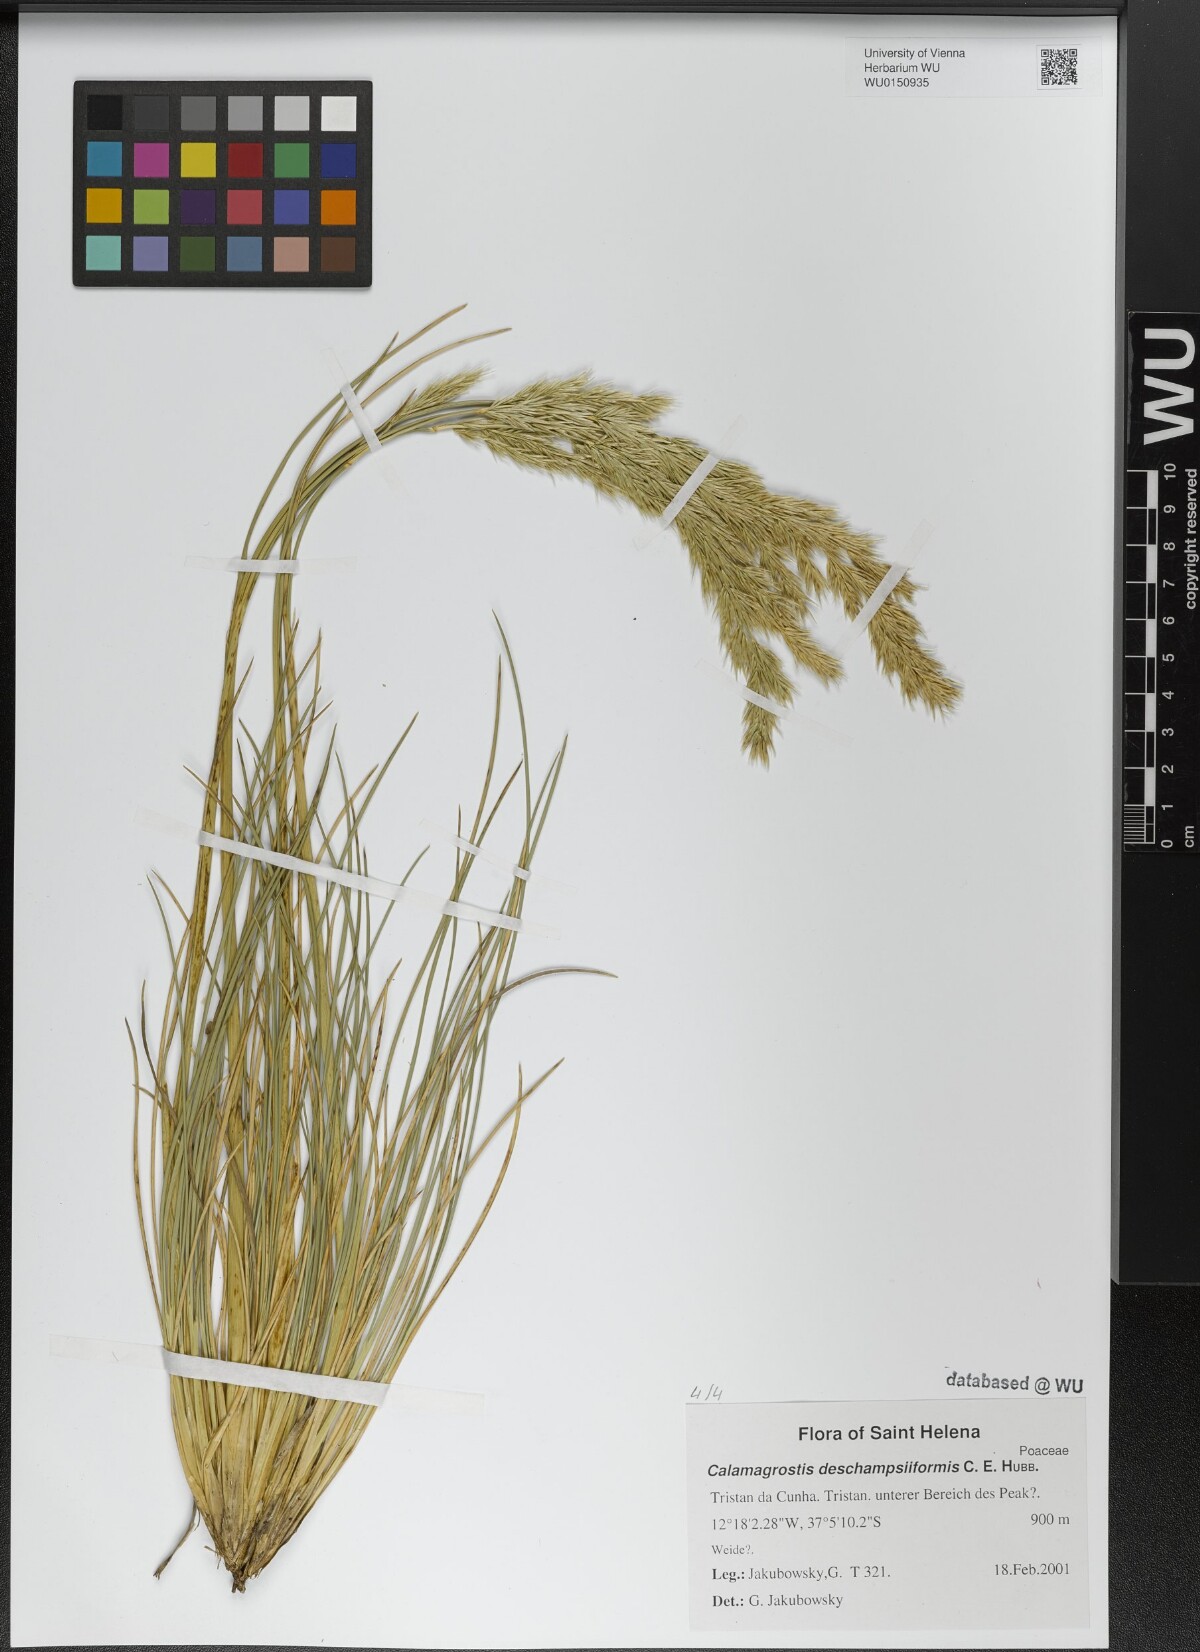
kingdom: Plantae
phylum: Tracheophyta
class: Liliopsida
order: Poales
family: Poaceae
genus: Calamagrostis
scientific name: Calamagrostis deschampsiiformis
